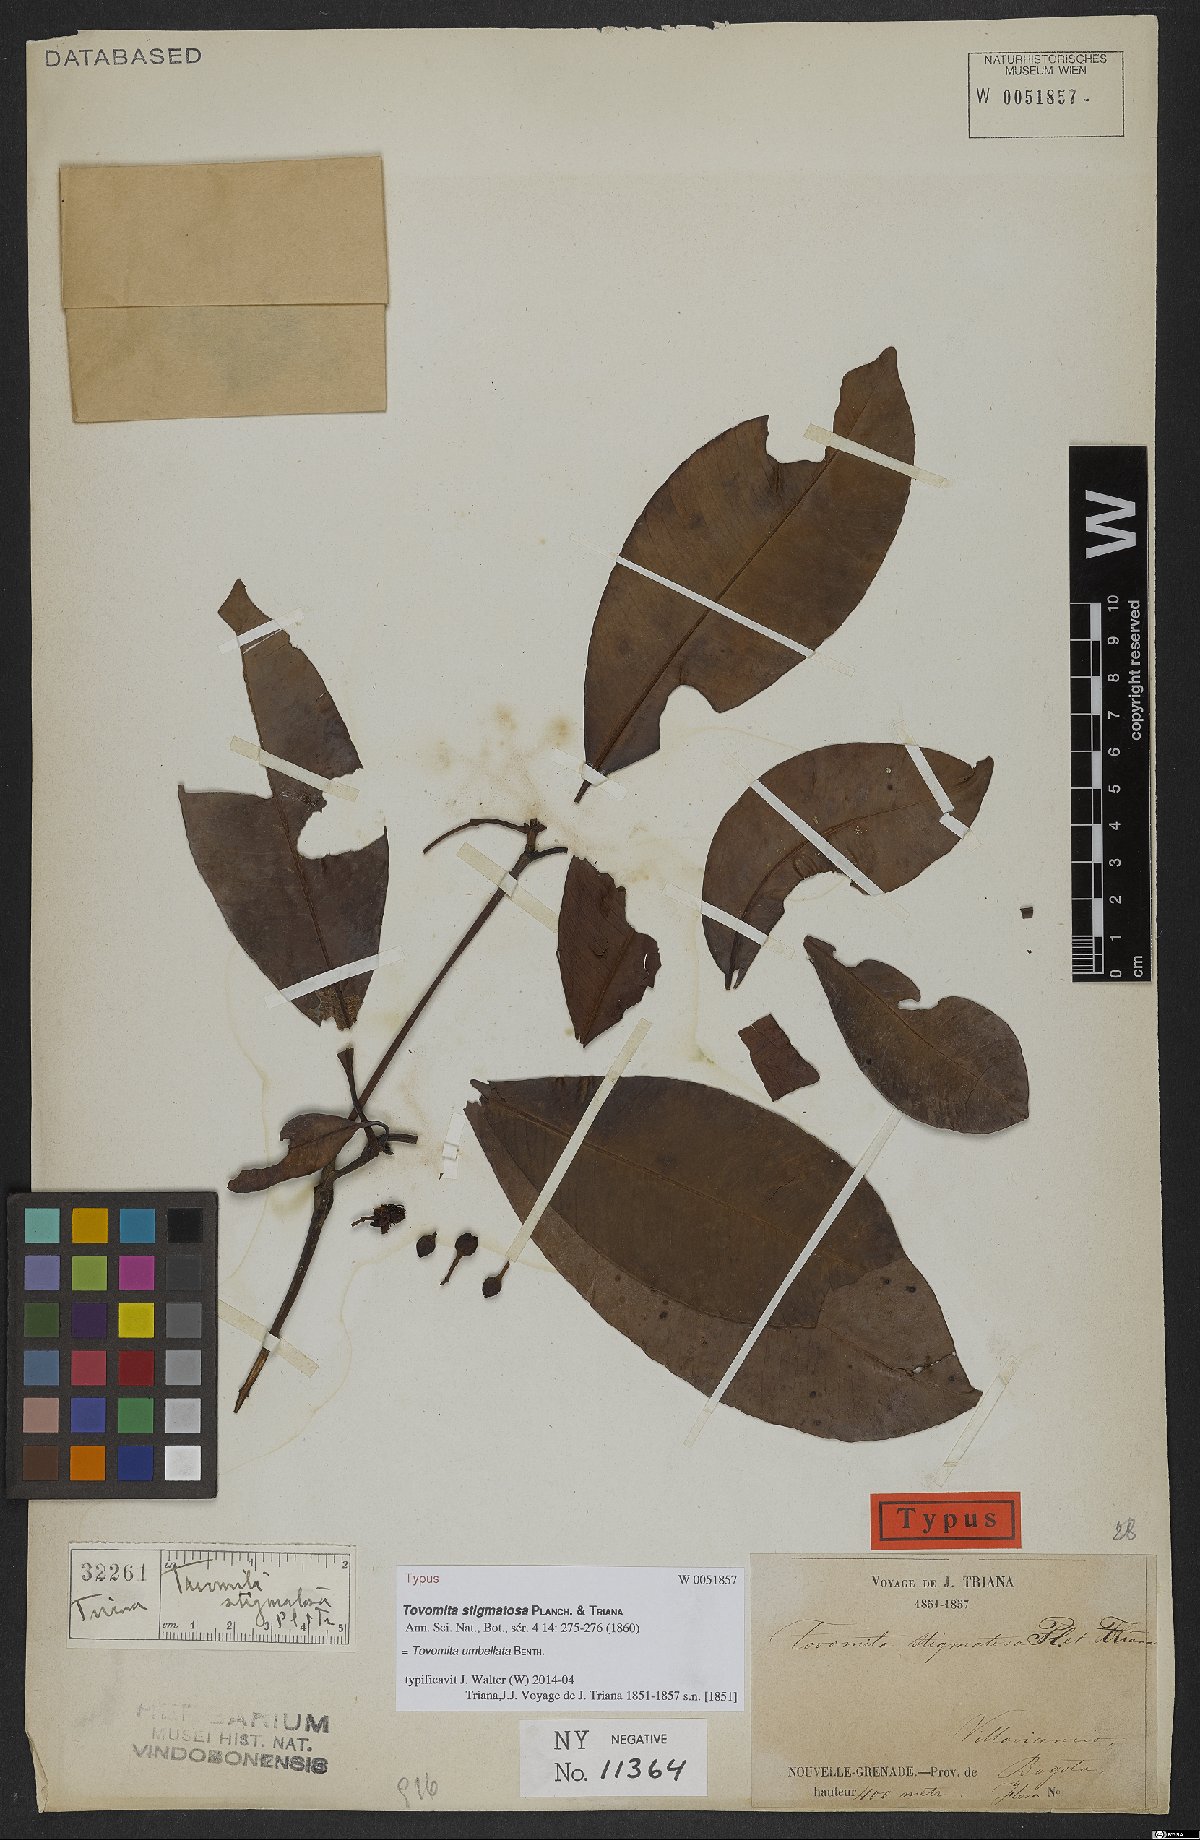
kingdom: Plantae
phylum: Tracheophyta
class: Magnoliopsida
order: Malpighiales
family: Clusiaceae
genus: Tovomita
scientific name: Tovomita umbellata
